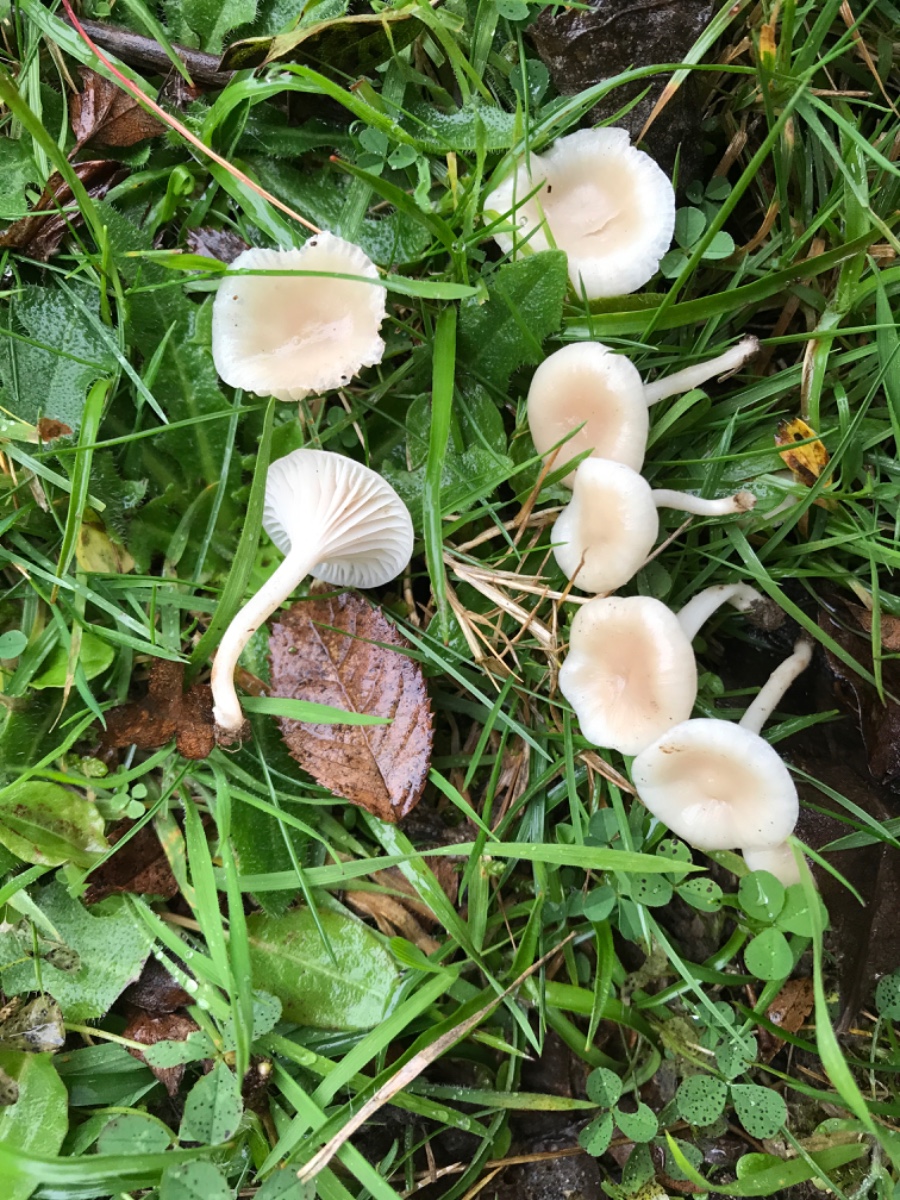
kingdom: Fungi
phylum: Basidiomycota
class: Agaricomycetes
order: Agaricales
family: Hygrophoraceae
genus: Cuphophyllus
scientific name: Cuphophyllus
